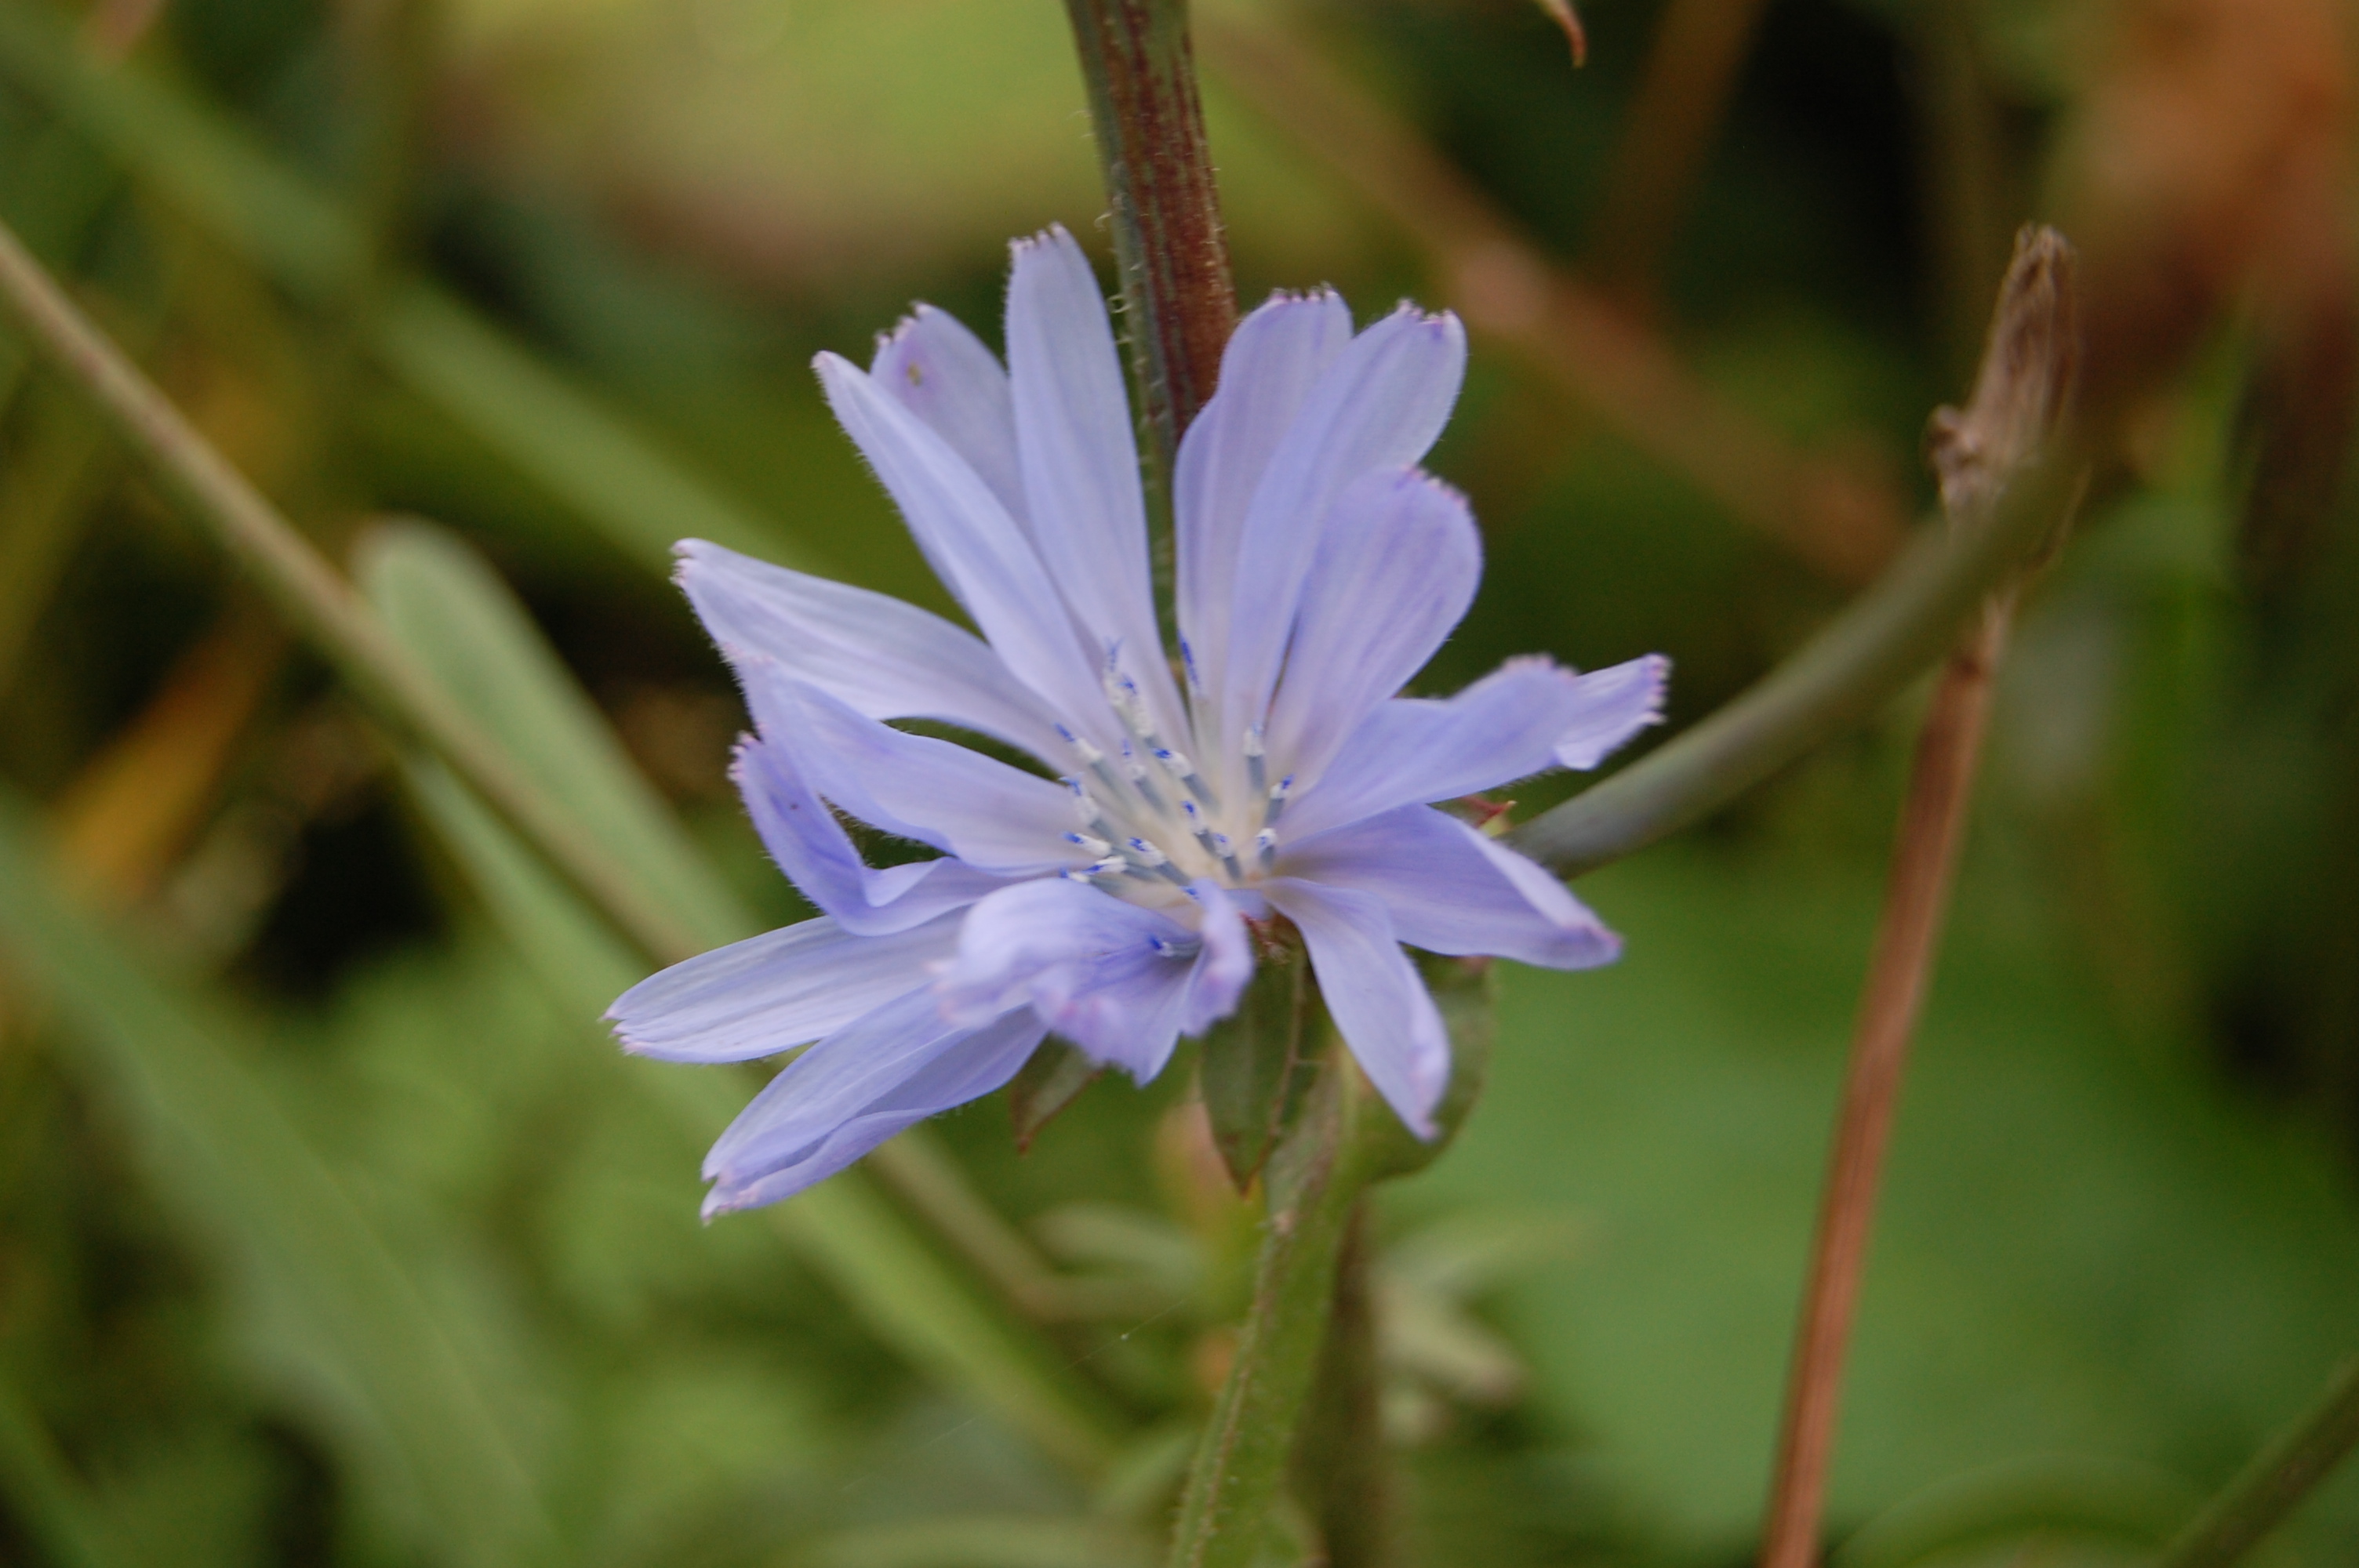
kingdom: Plantae
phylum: Tracheophyta
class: Magnoliopsida
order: Asterales
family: Asteraceae
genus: Cichorium
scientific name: Cichorium intybus
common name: Chicory
